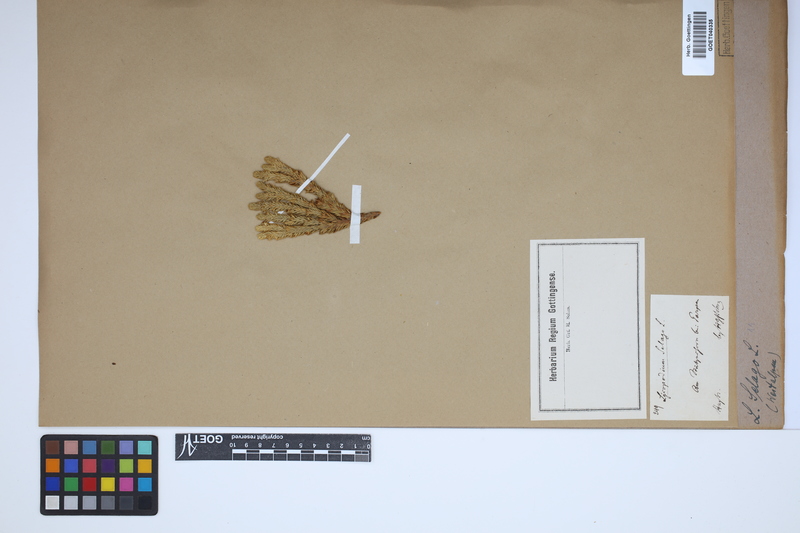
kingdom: Plantae
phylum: Tracheophyta
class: Lycopodiopsida
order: Lycopodiales
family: Lycopodiaceae
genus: Huperzia
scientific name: Huperzia selago
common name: Northern firmoss
